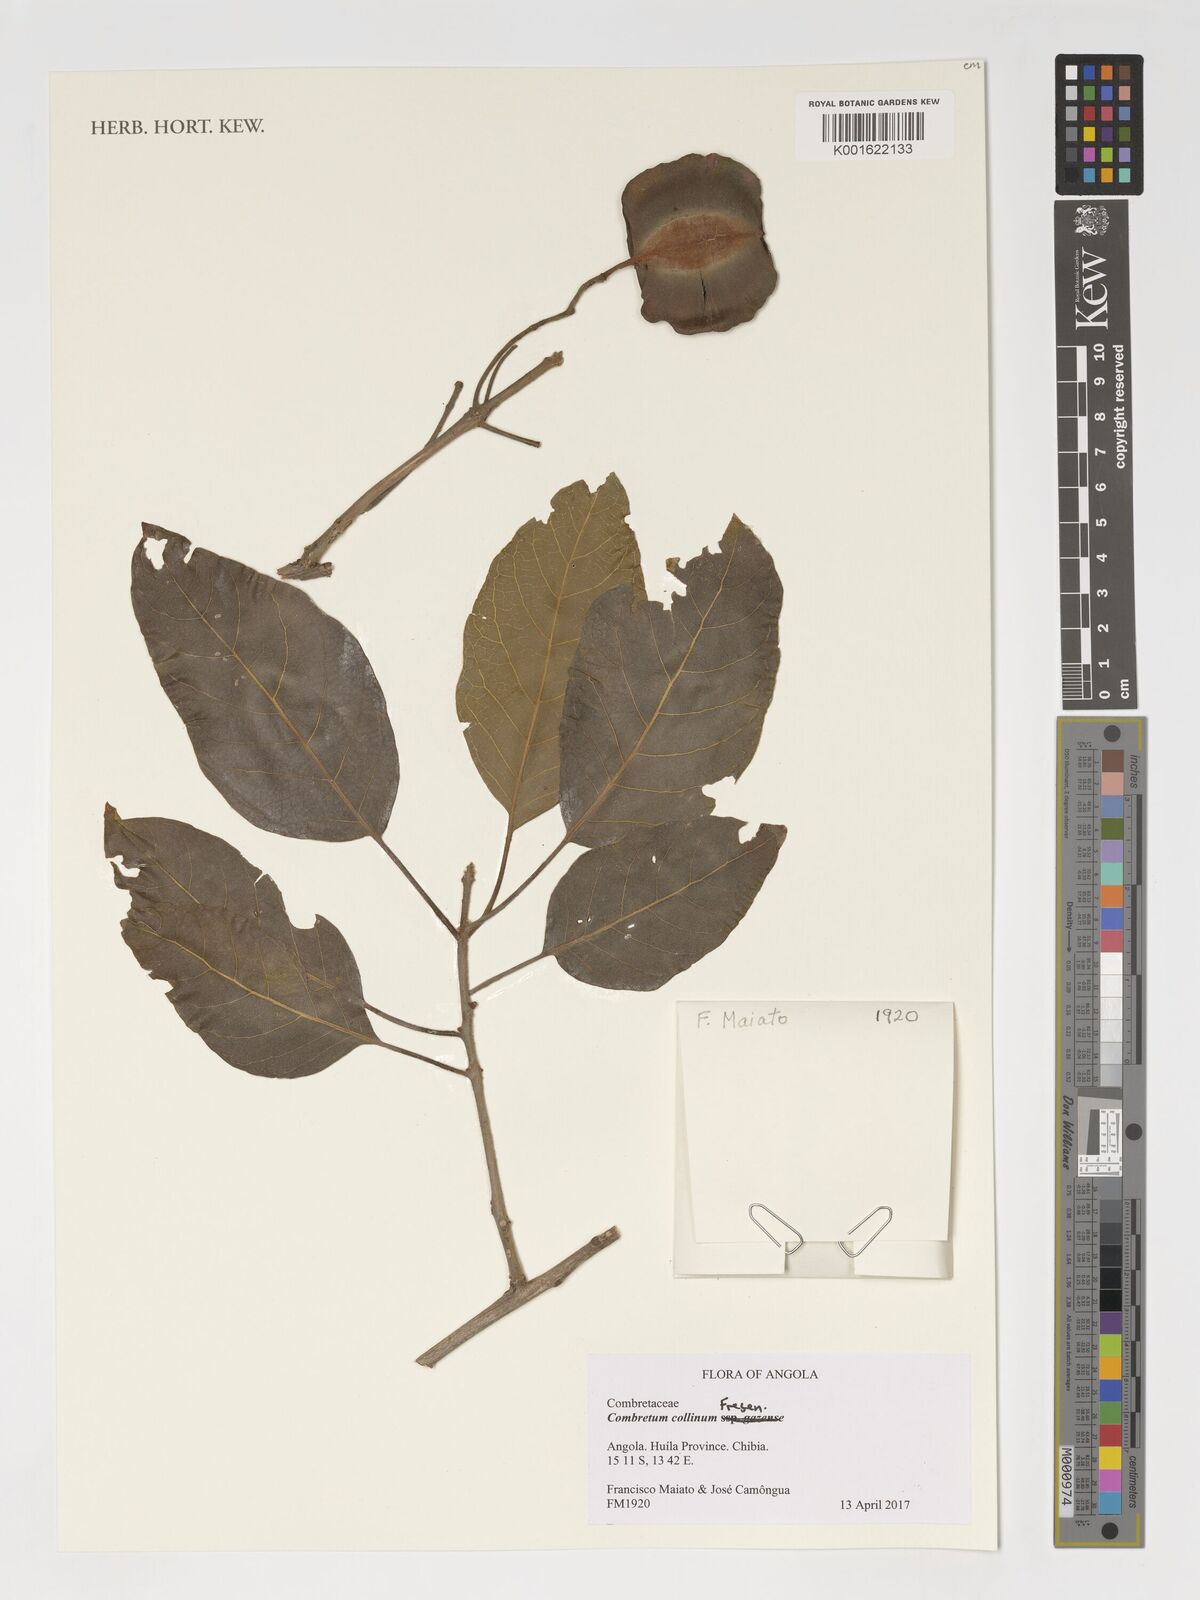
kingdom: Plantae
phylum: Tracheophyta
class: Magnoliopsida
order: Myrtales
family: Combretaceae
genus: Combretum
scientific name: Combretum collinum
